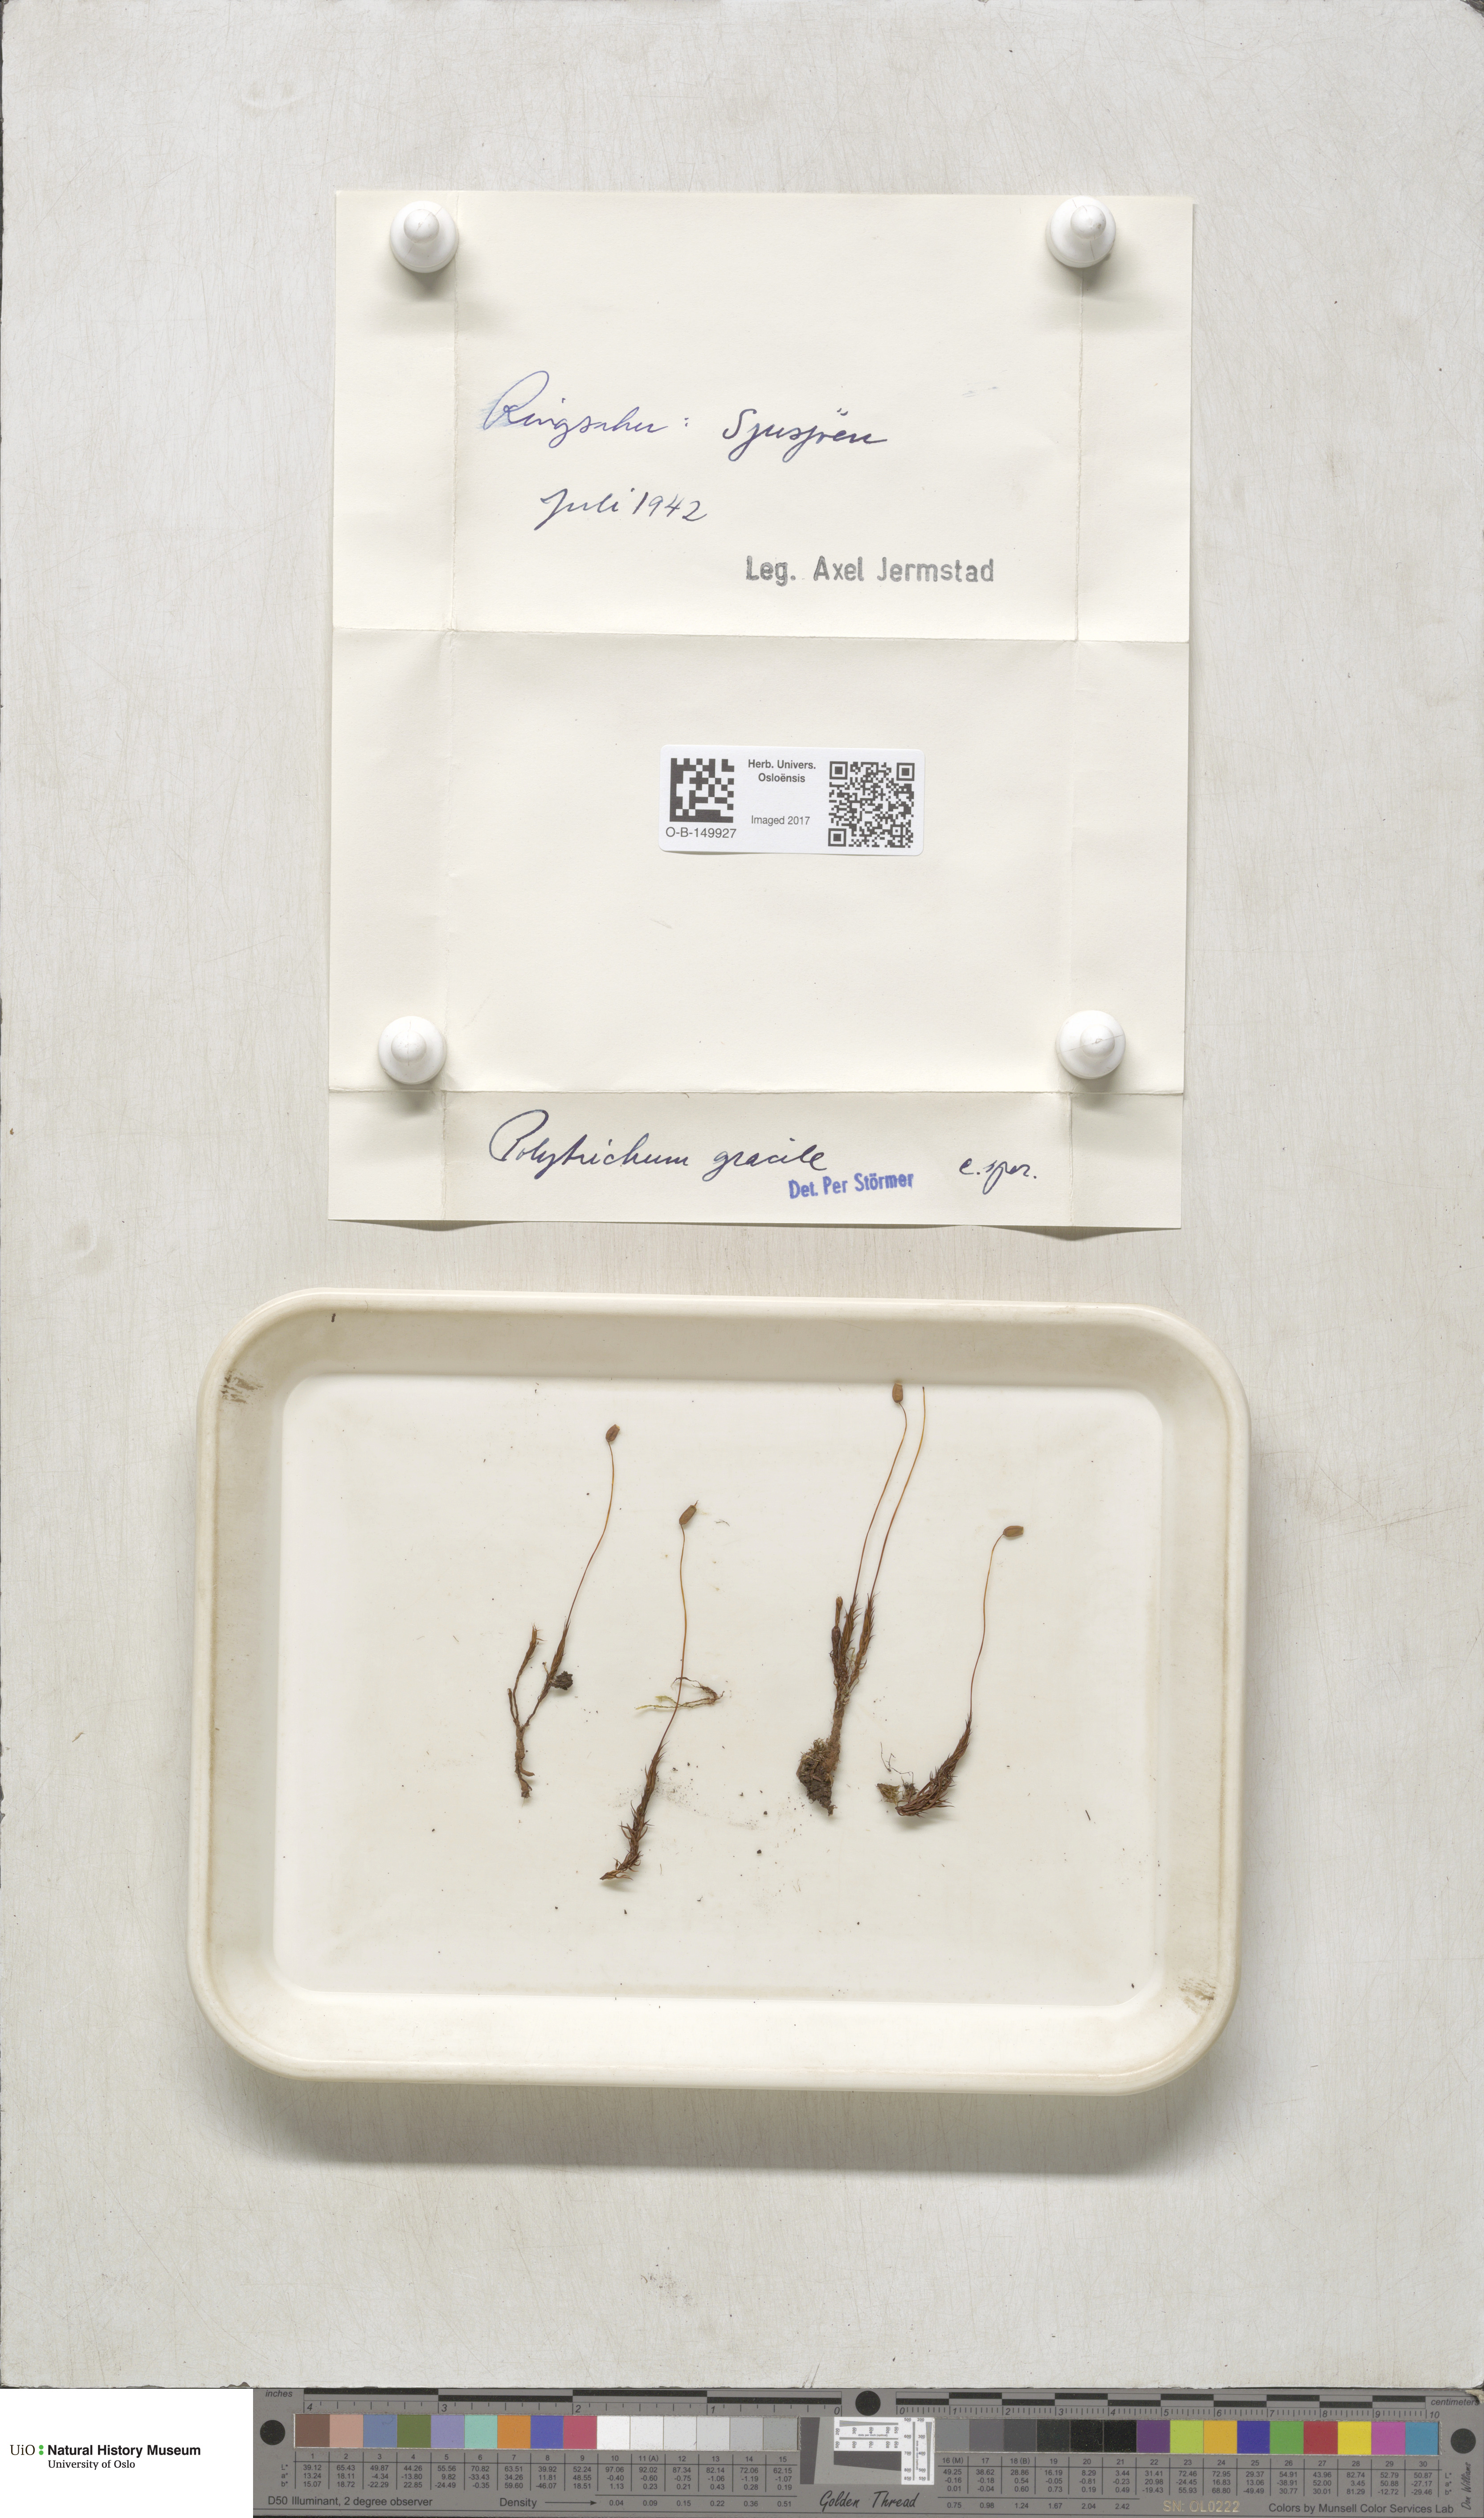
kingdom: Plantae
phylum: Bryophyta
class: Polytrichopsida
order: Polytrichales
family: Polytrichaceae
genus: Polytrichum
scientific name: Polytrichum longisetum
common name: Long-stalked haircap moss
